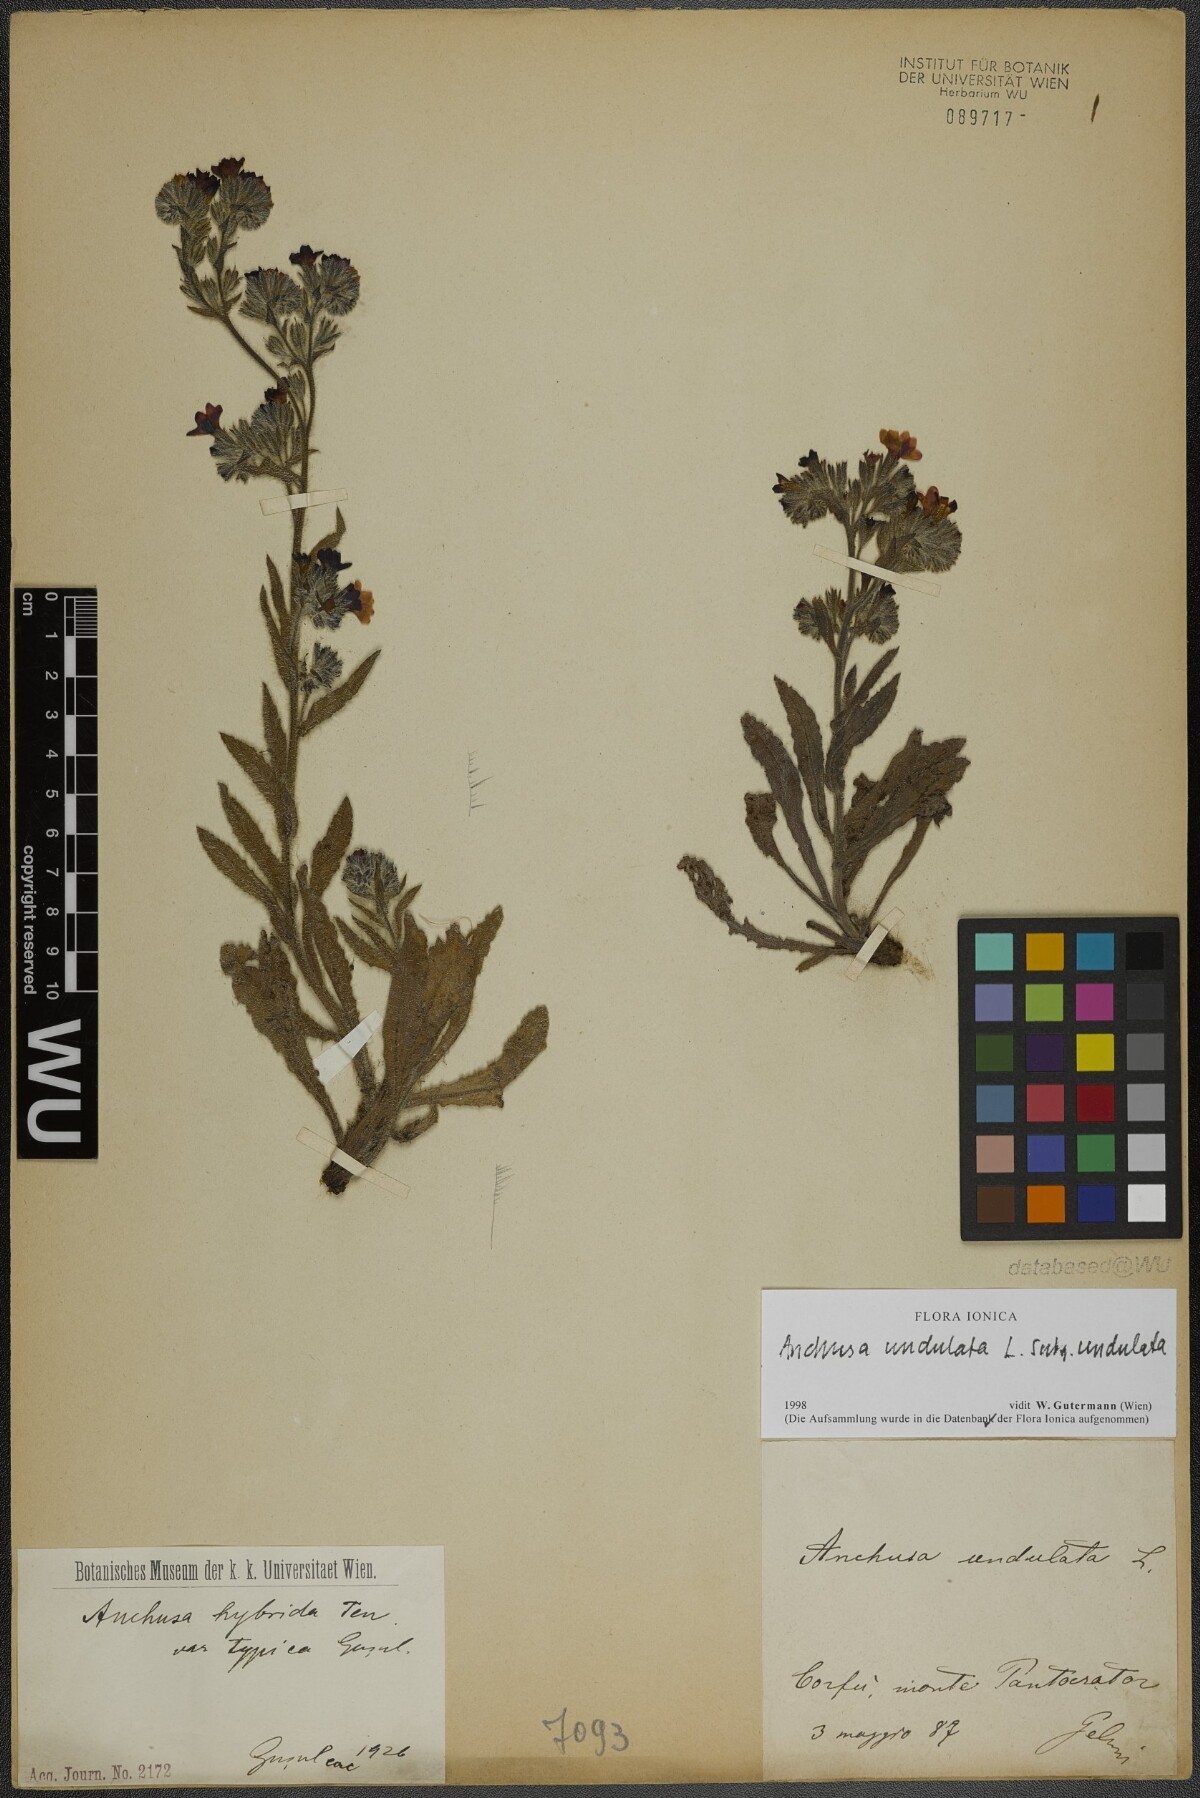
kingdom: Plantae
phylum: Tracheophyta
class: Magnoliopsida
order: Boraginales
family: Boraginaceae
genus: Anchusa
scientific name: Anchusa undulata
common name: Undulate alkanet
